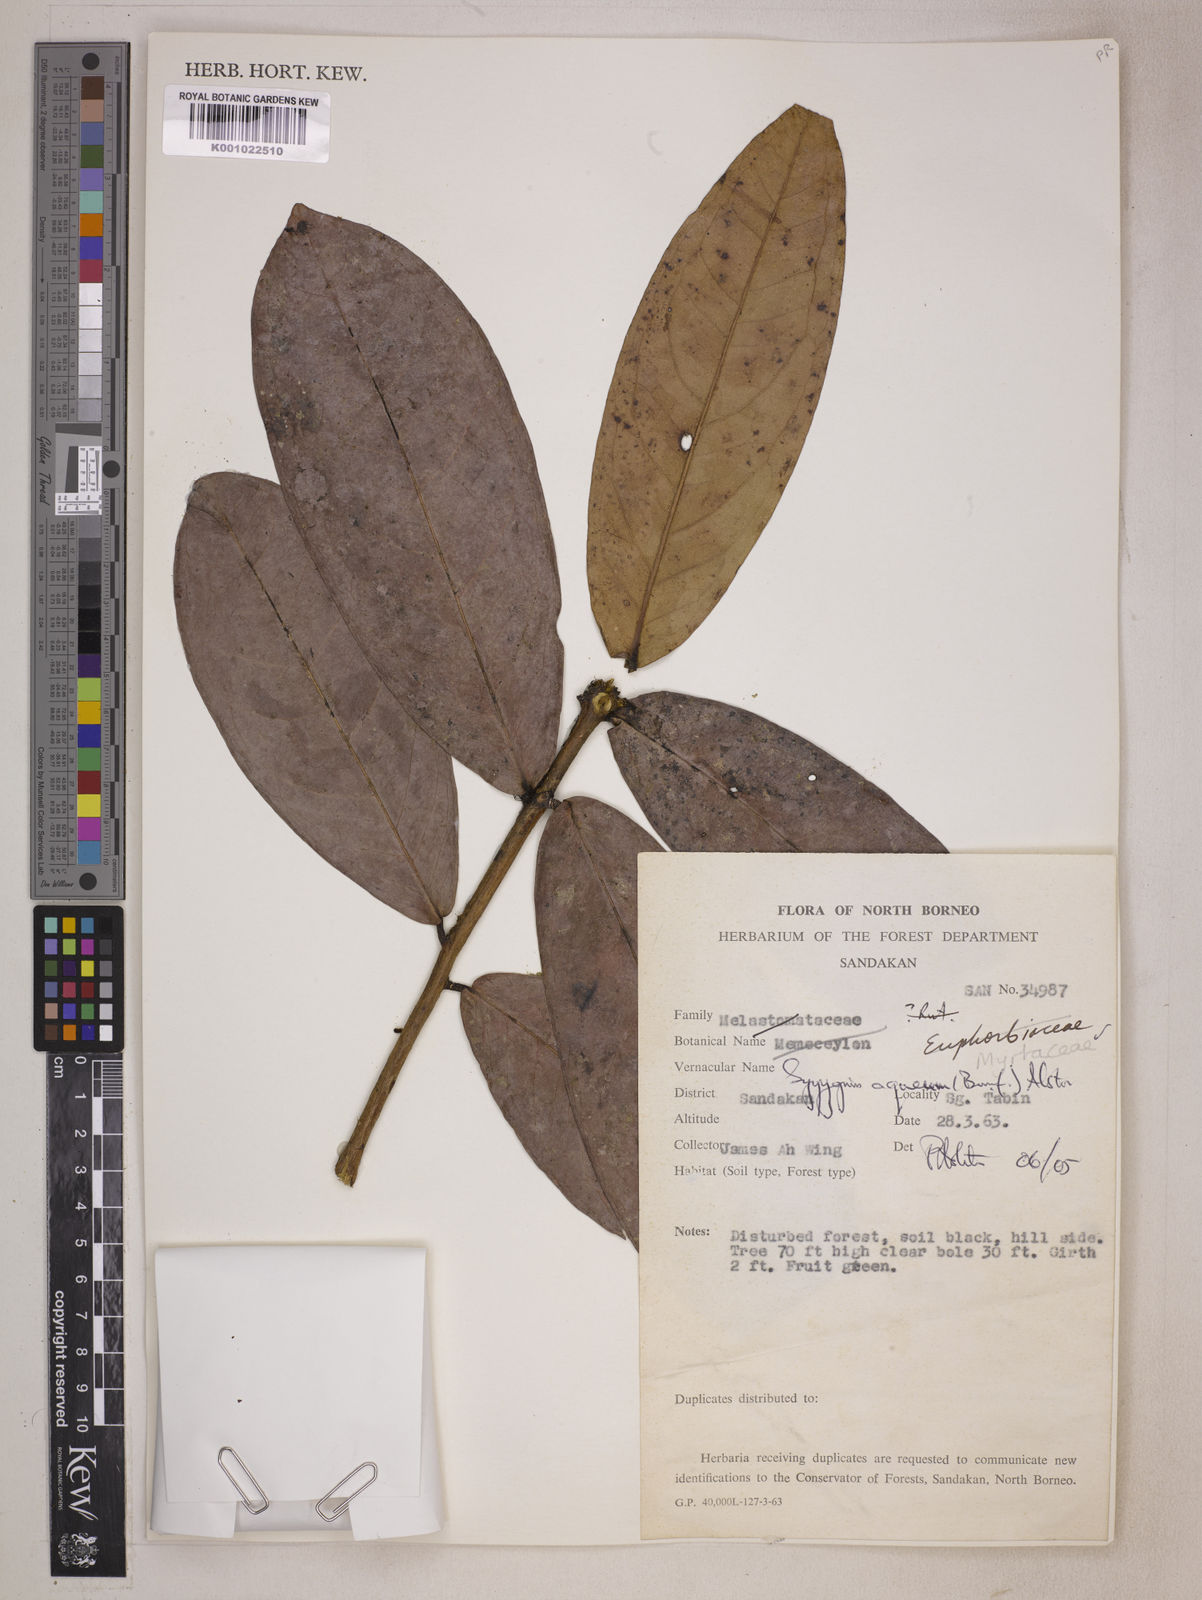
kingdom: Plantae
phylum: Tracheophyta
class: Magnoliopsida
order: Myrtales
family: Myrtaceae
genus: Syzygium
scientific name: Syzygium aqueum
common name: Water-apple
